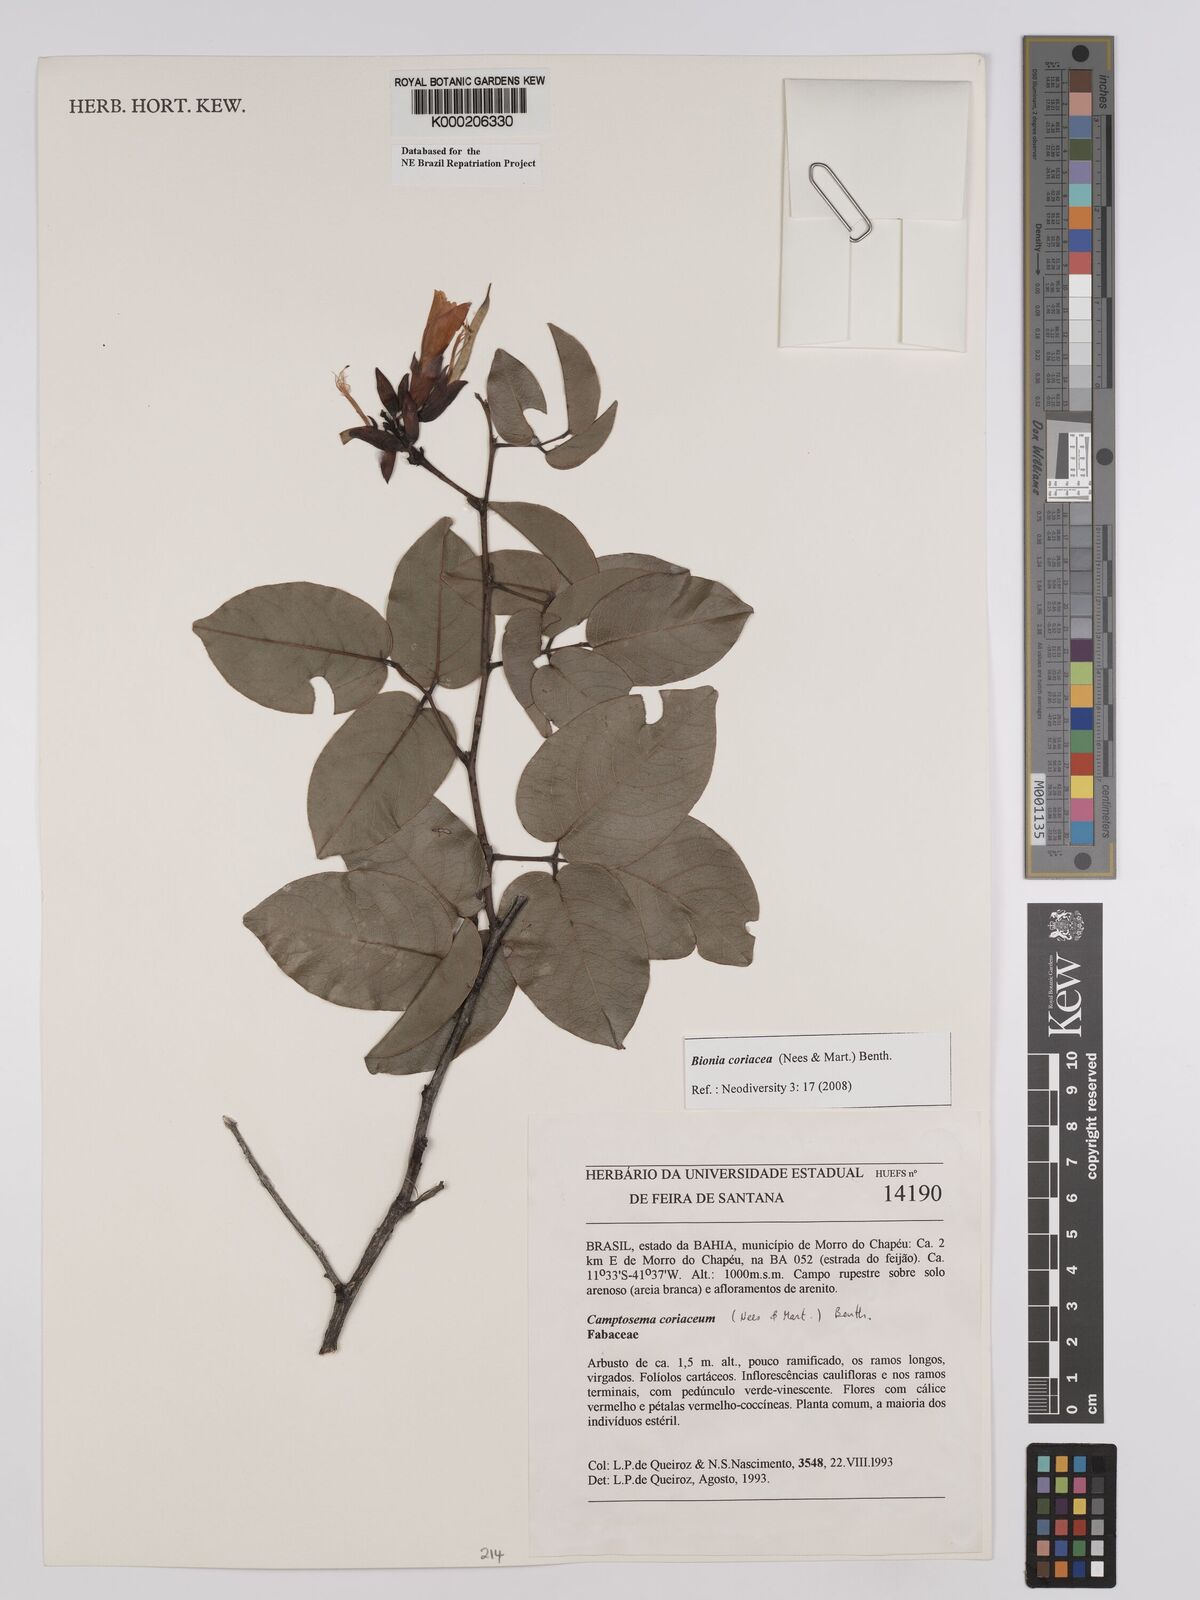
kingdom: Plantae
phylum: Tracheophyta
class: Magnoliopsida
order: Fabales
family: Fabaceae
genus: Camptosema
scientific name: Camptosema coriaceum
